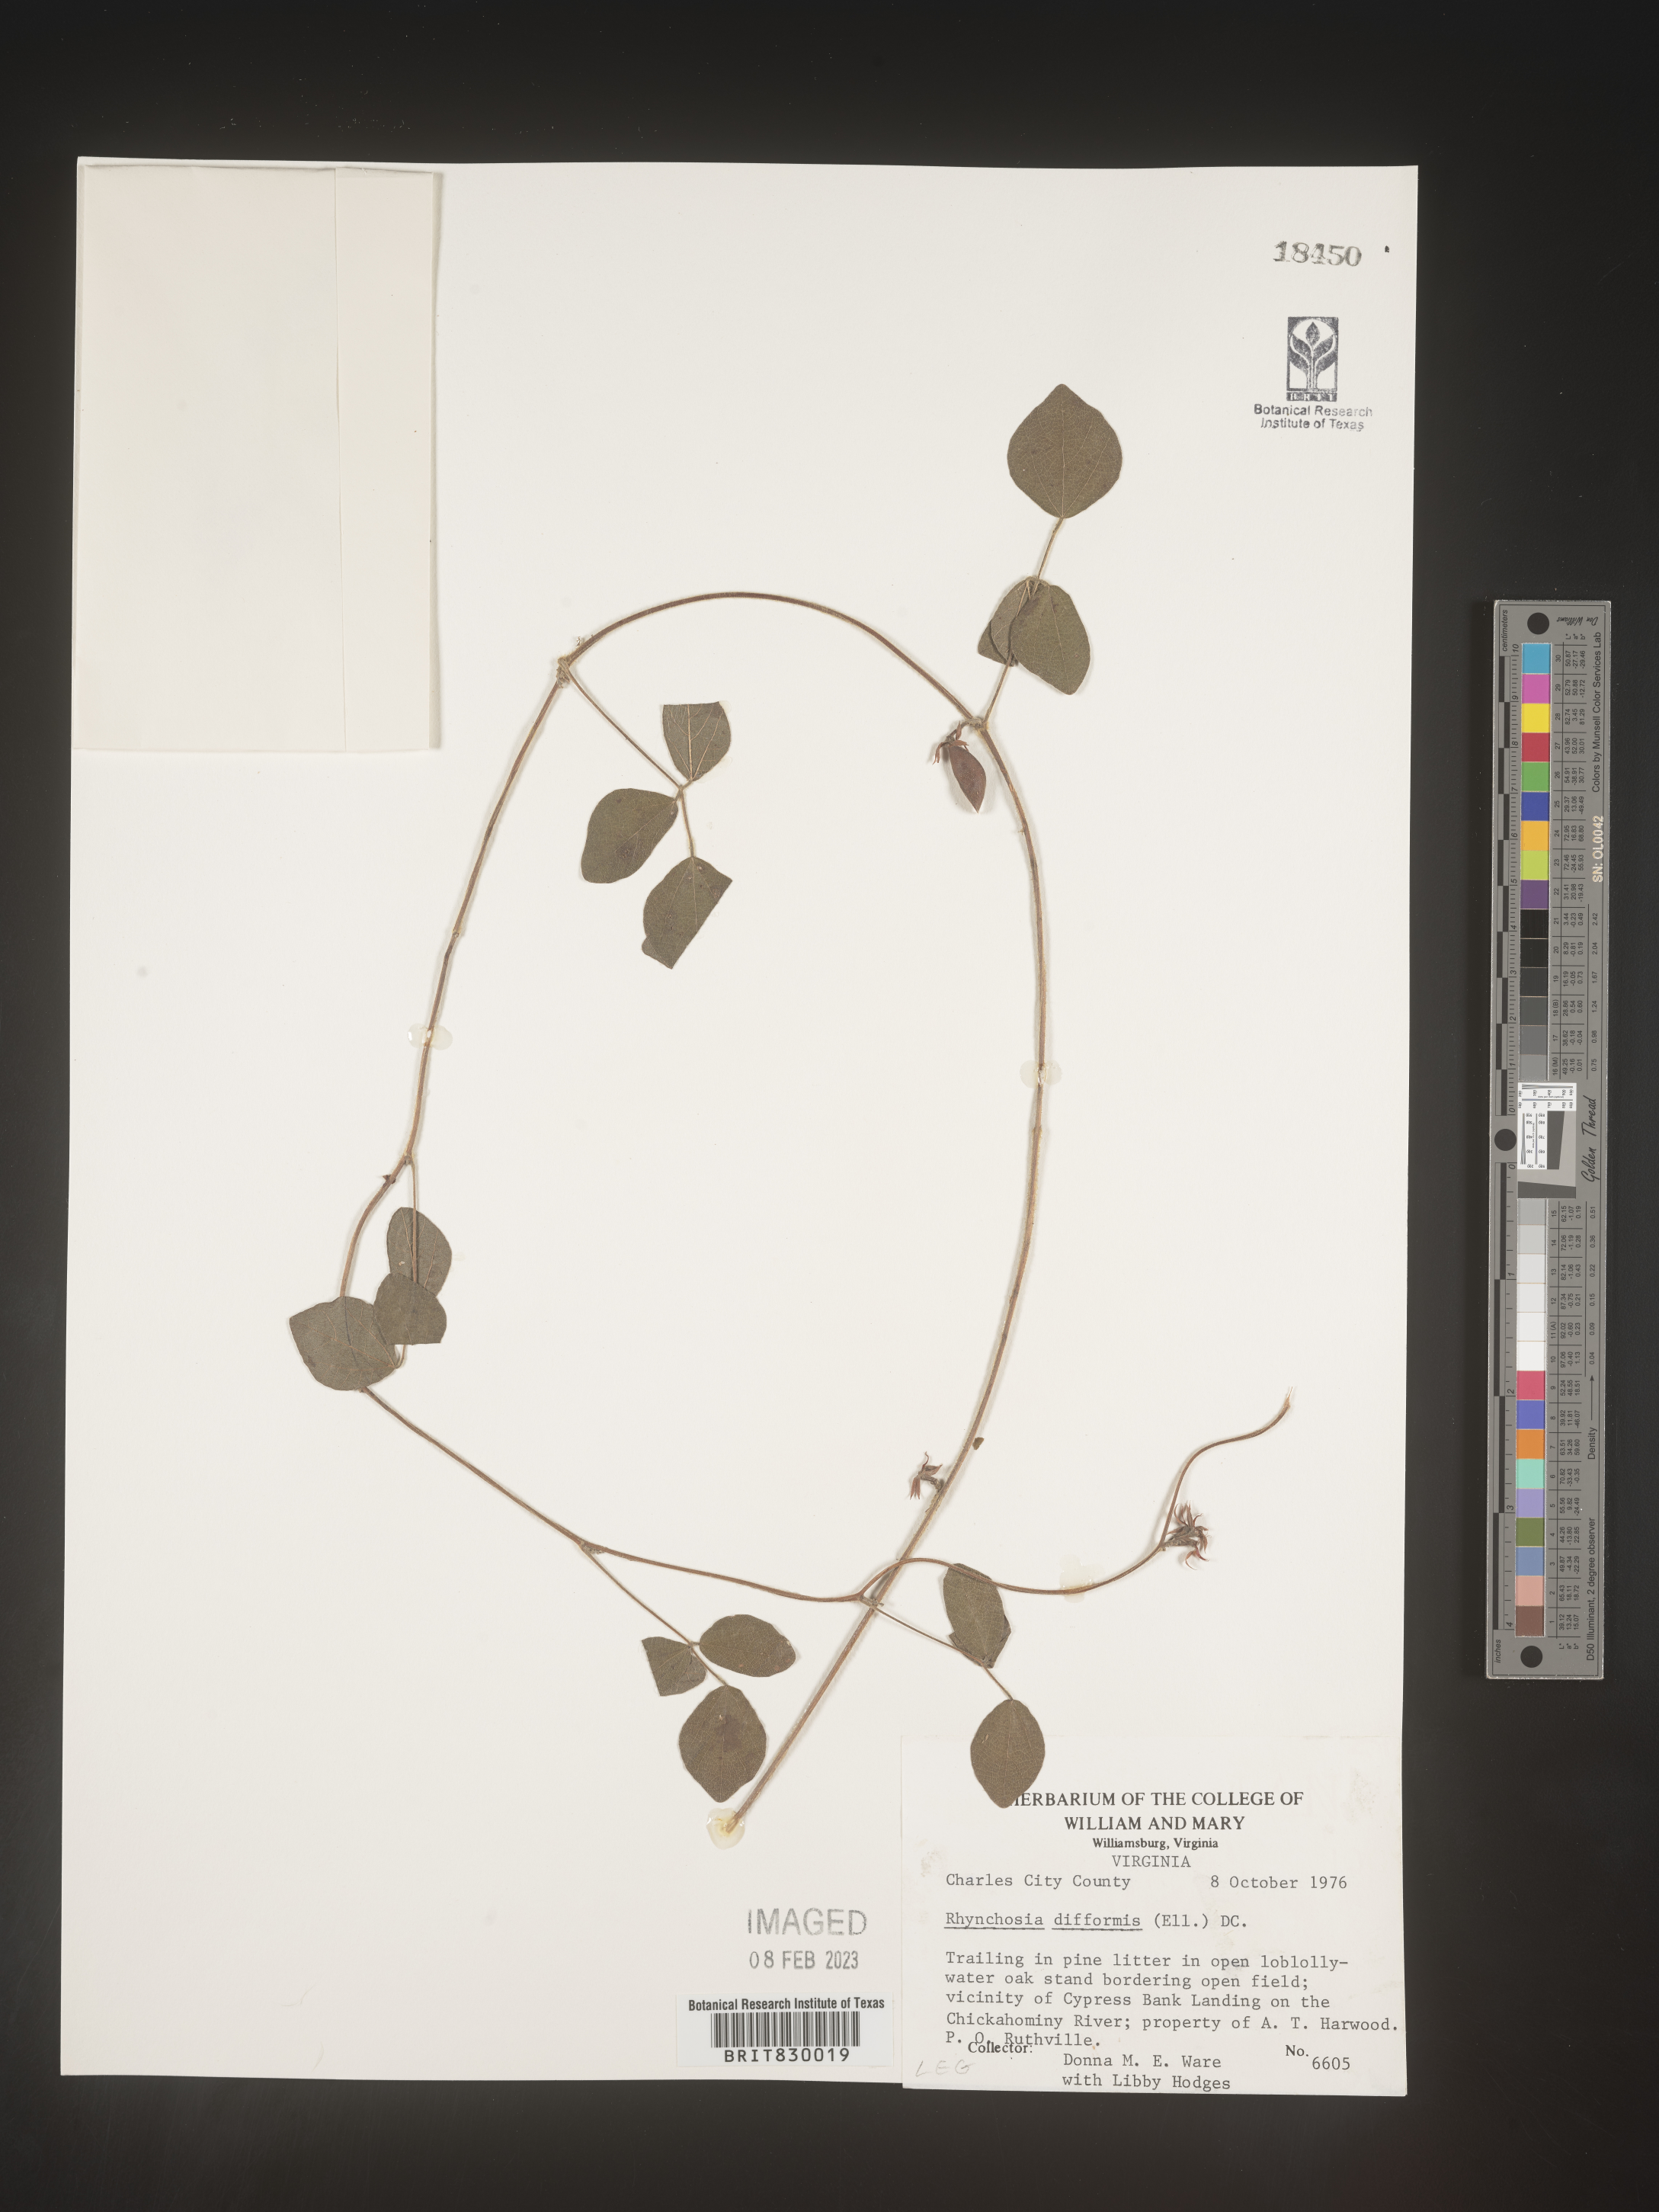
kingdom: Plantae
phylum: Tracheophyta
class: Magnoliopsida
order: Fabales
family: Fabaceae
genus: Rhynchosia
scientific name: Rhynchosia difformis
